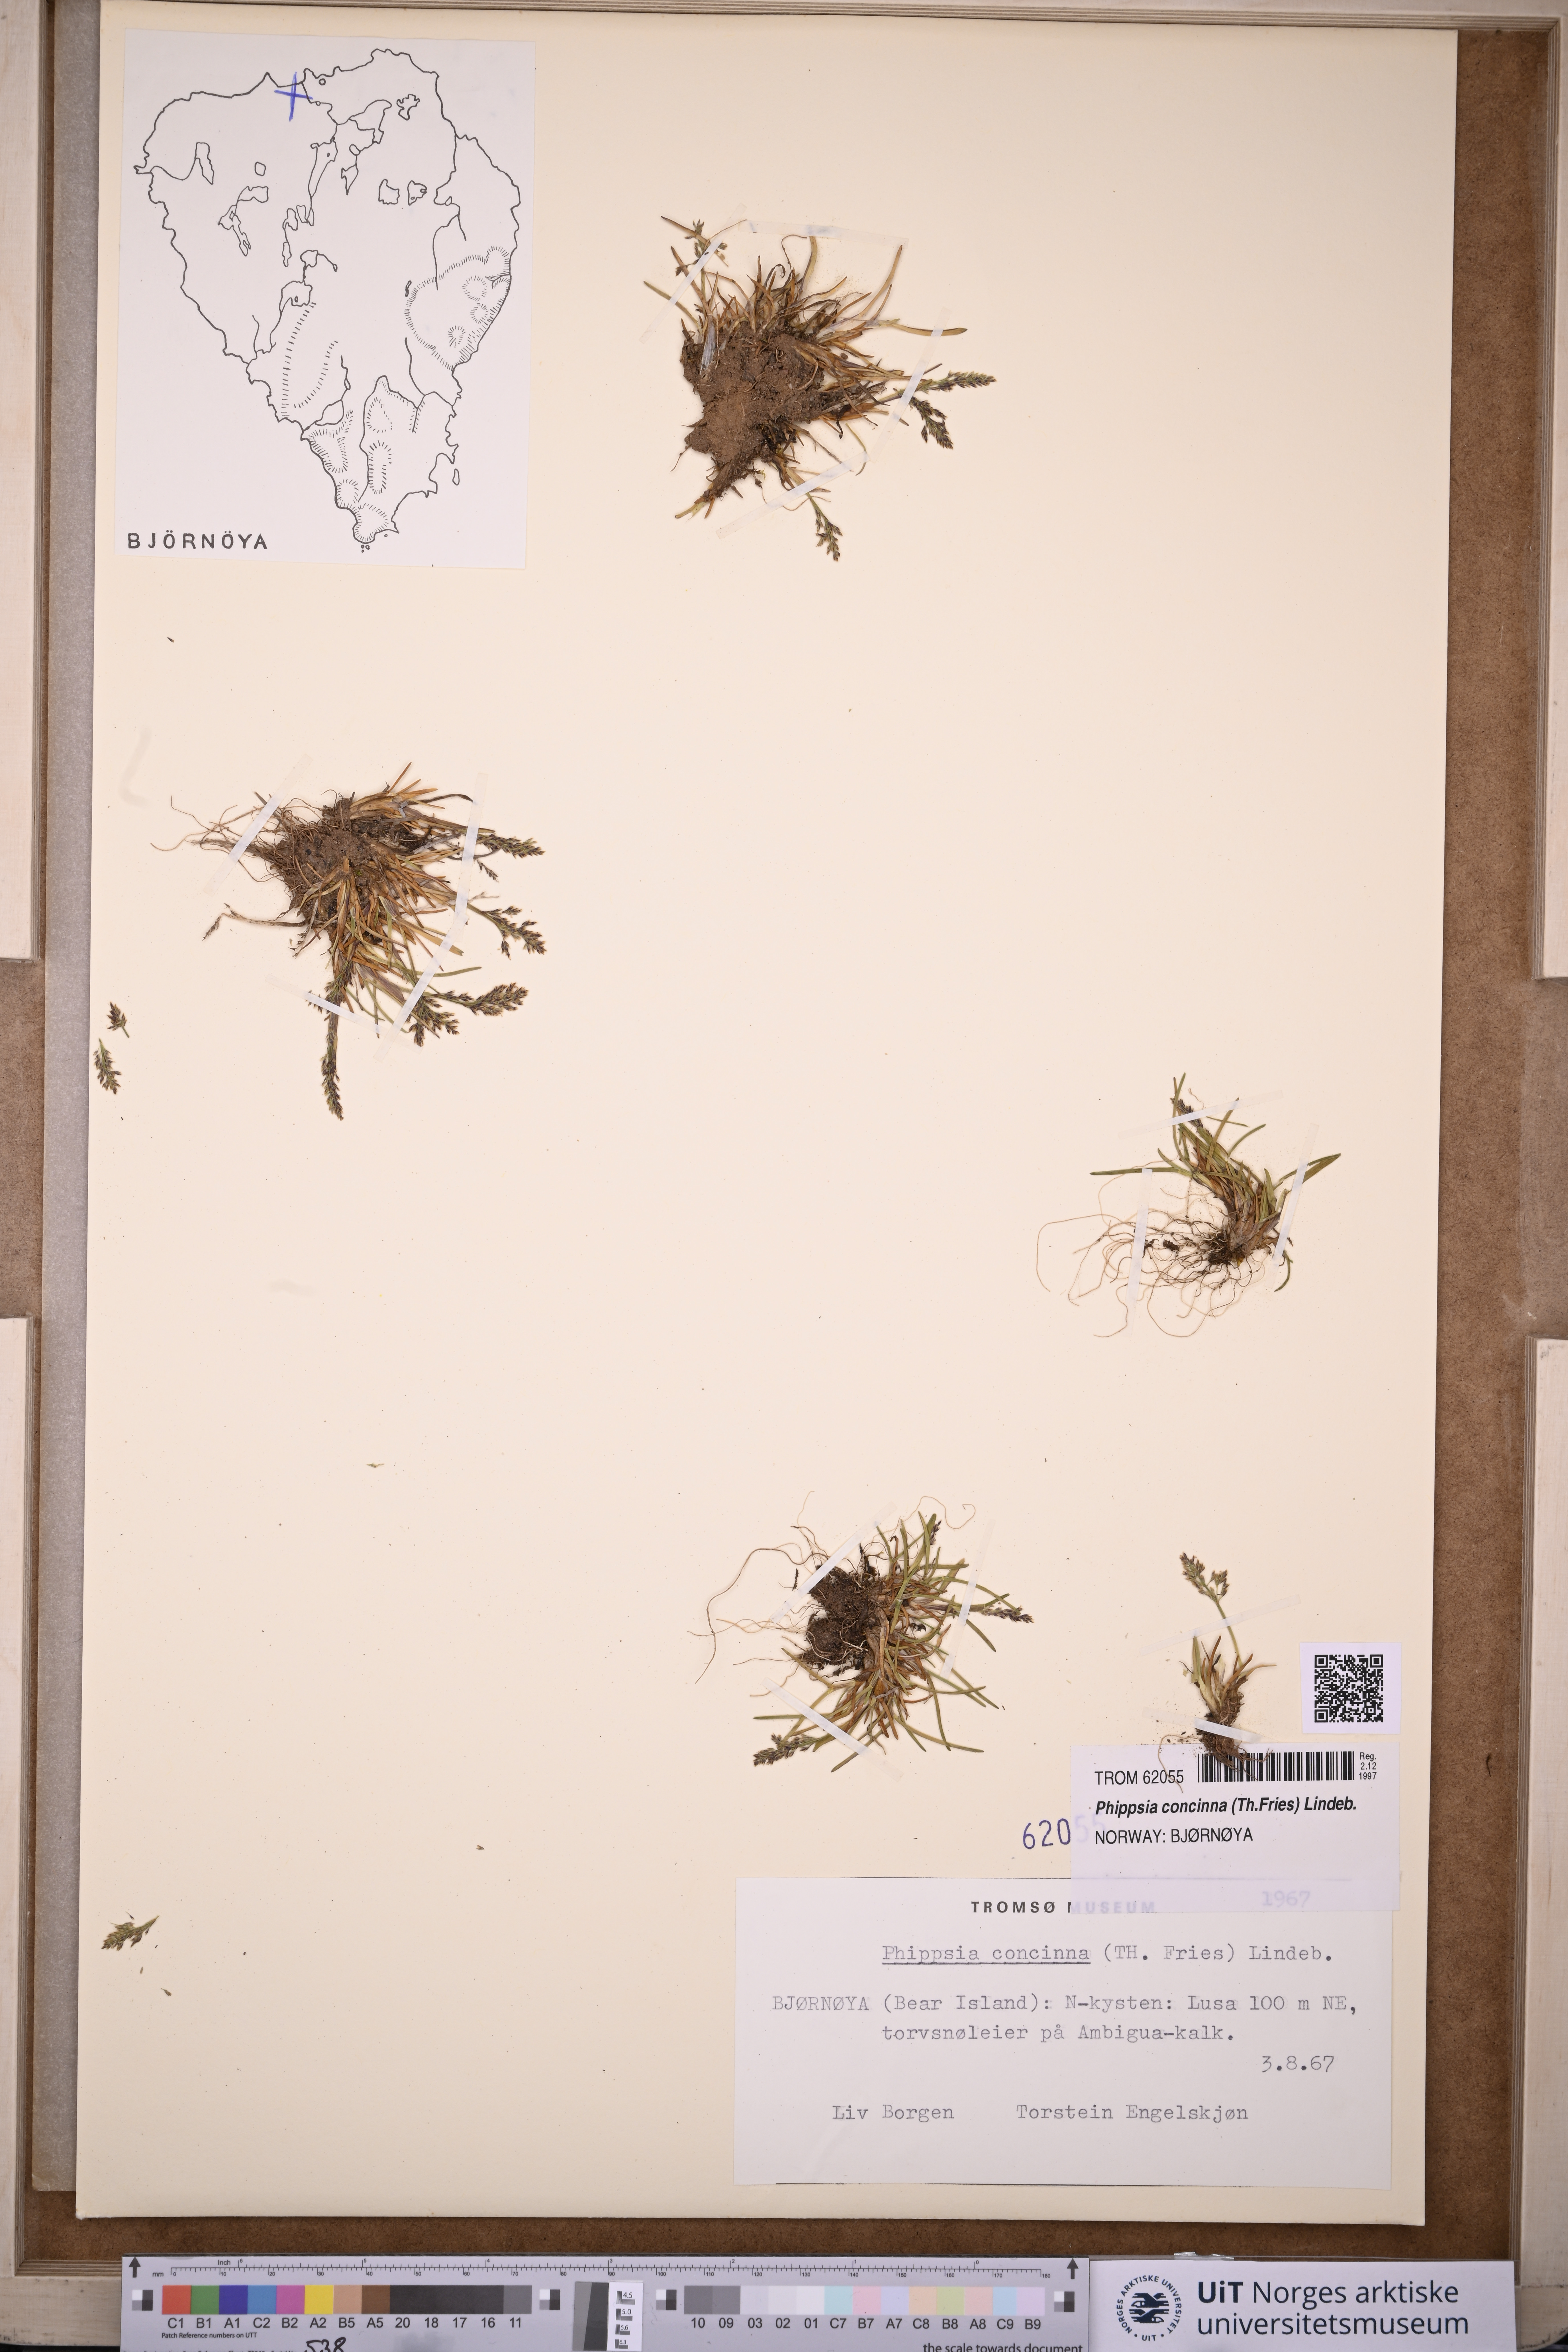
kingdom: Plantae
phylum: Tracheophyta
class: Liliopsida
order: Poales
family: Poaceae
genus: Phippsia
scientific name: Phippsia concinna
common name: Snowgrass
